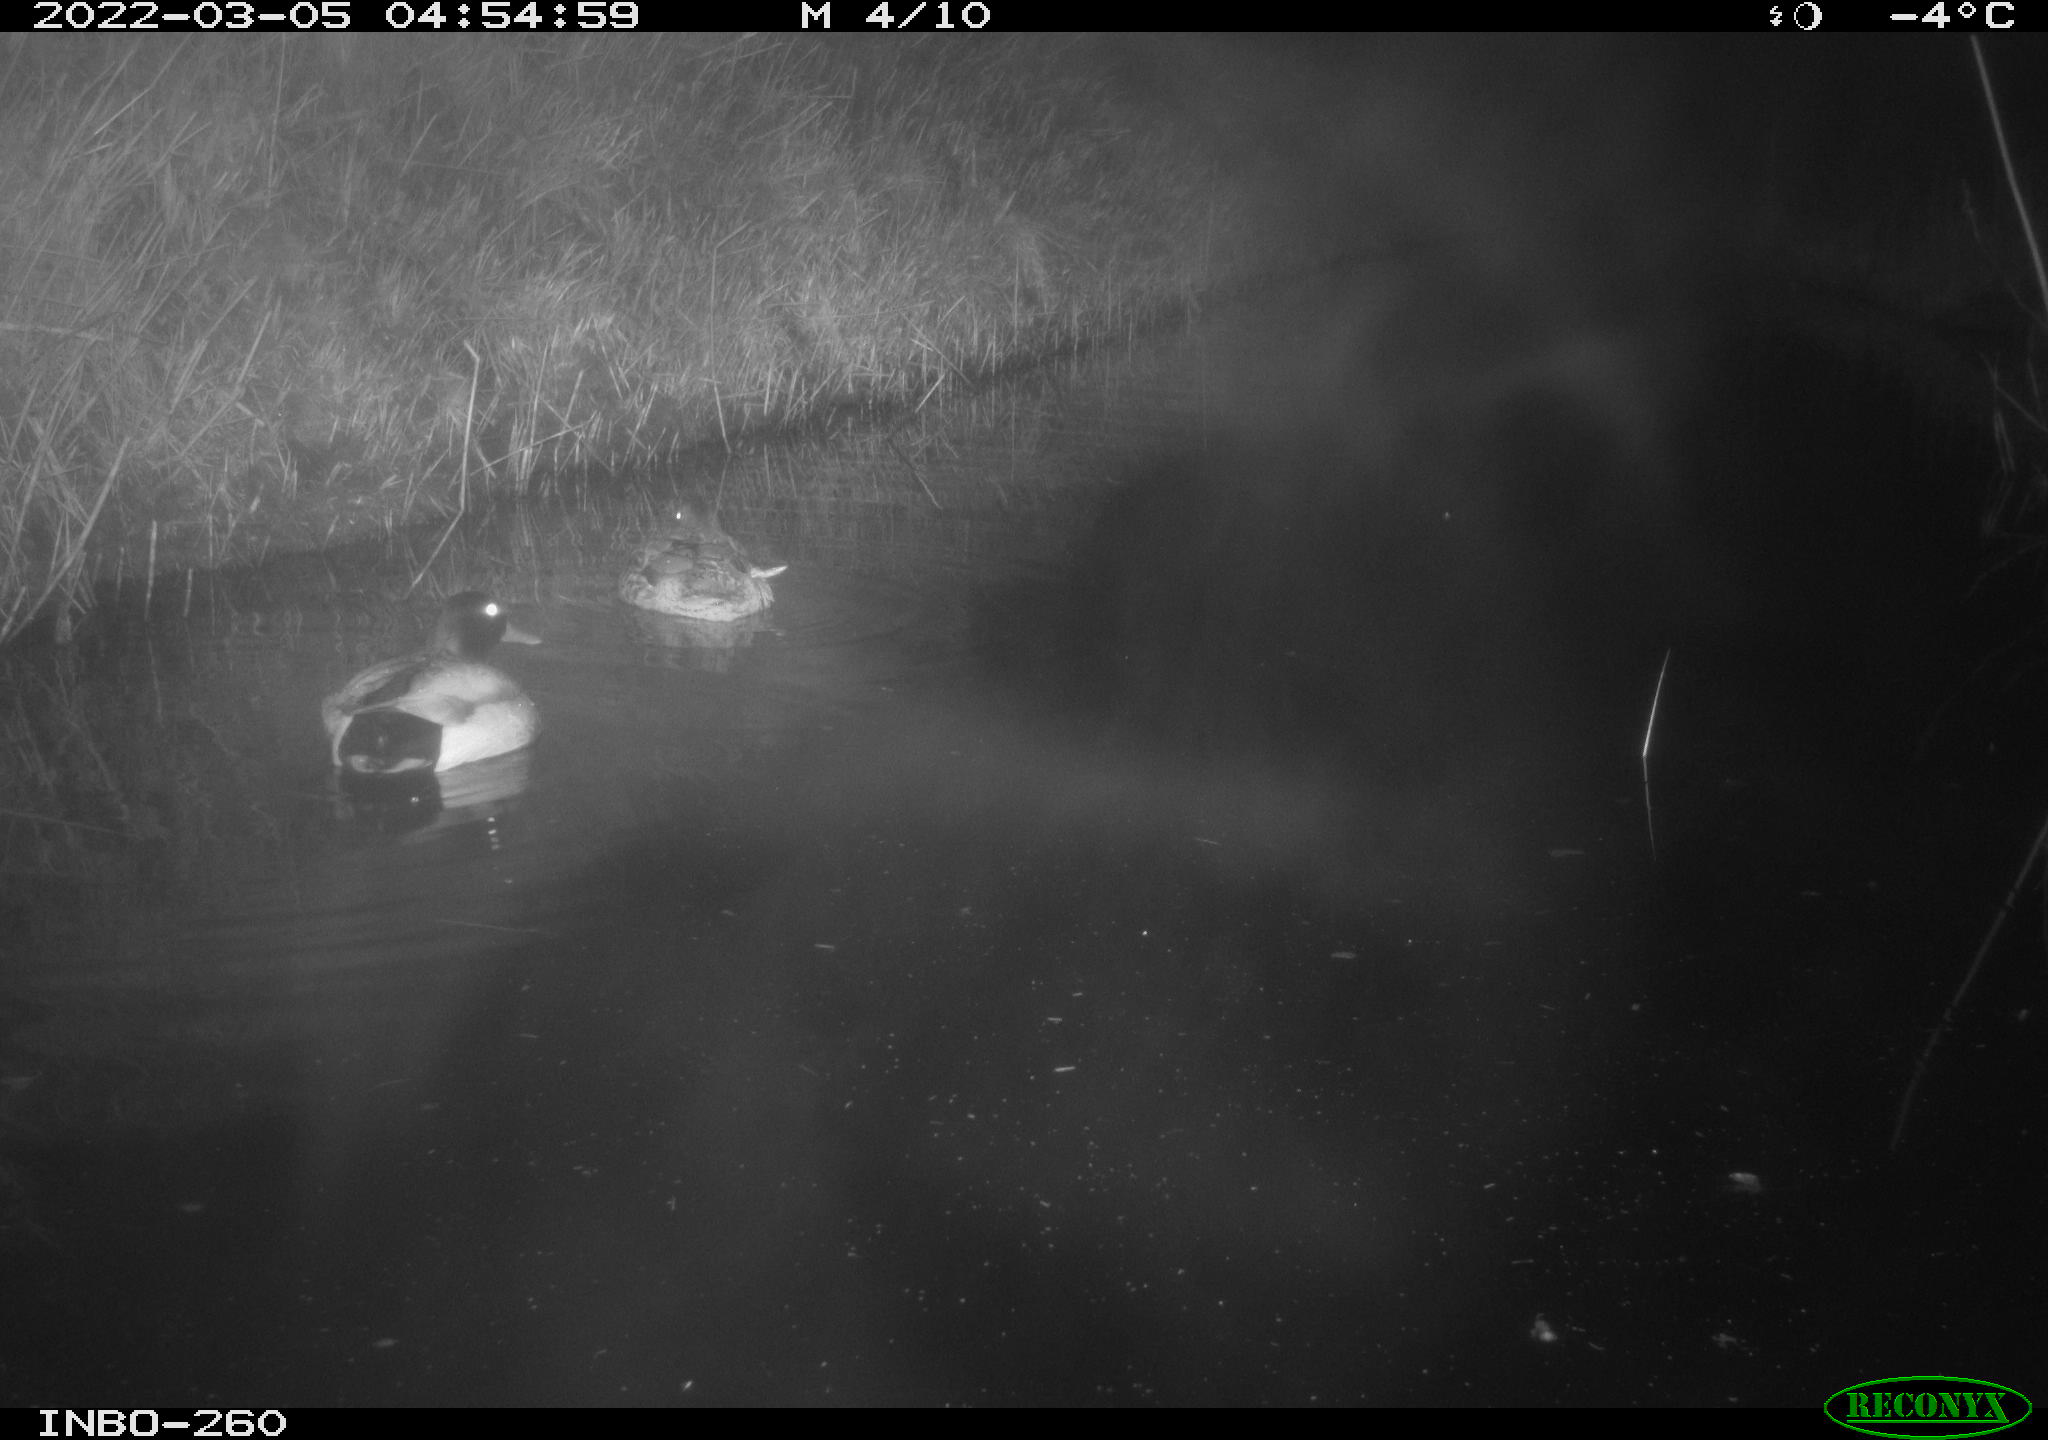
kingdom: Animalia
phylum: Chordata
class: Aves
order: Anseriformes
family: Anatidae
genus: Anas
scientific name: Anas platyrhynchos
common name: Mallard
